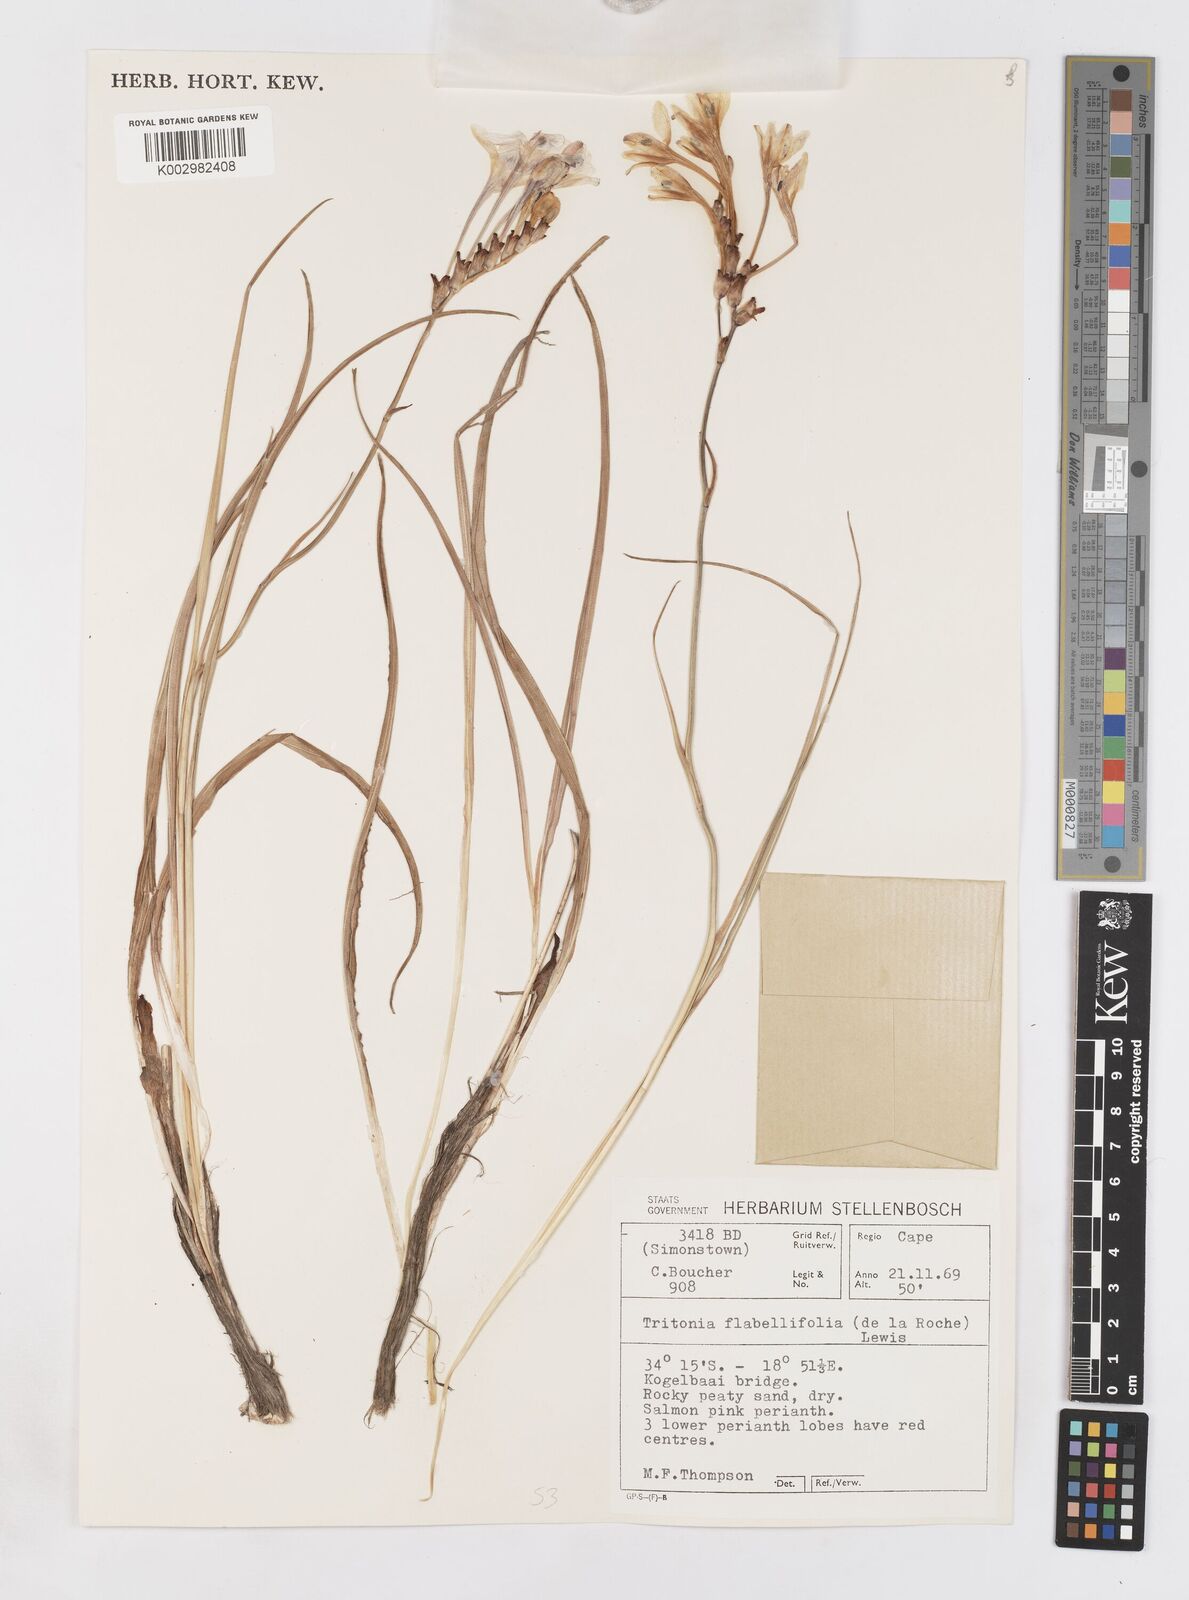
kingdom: Plantae
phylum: Tracheophyta
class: Liliopsida
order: Asparagales
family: Iridaceae
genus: Tritonia
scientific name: Tritonia flabellifolia
